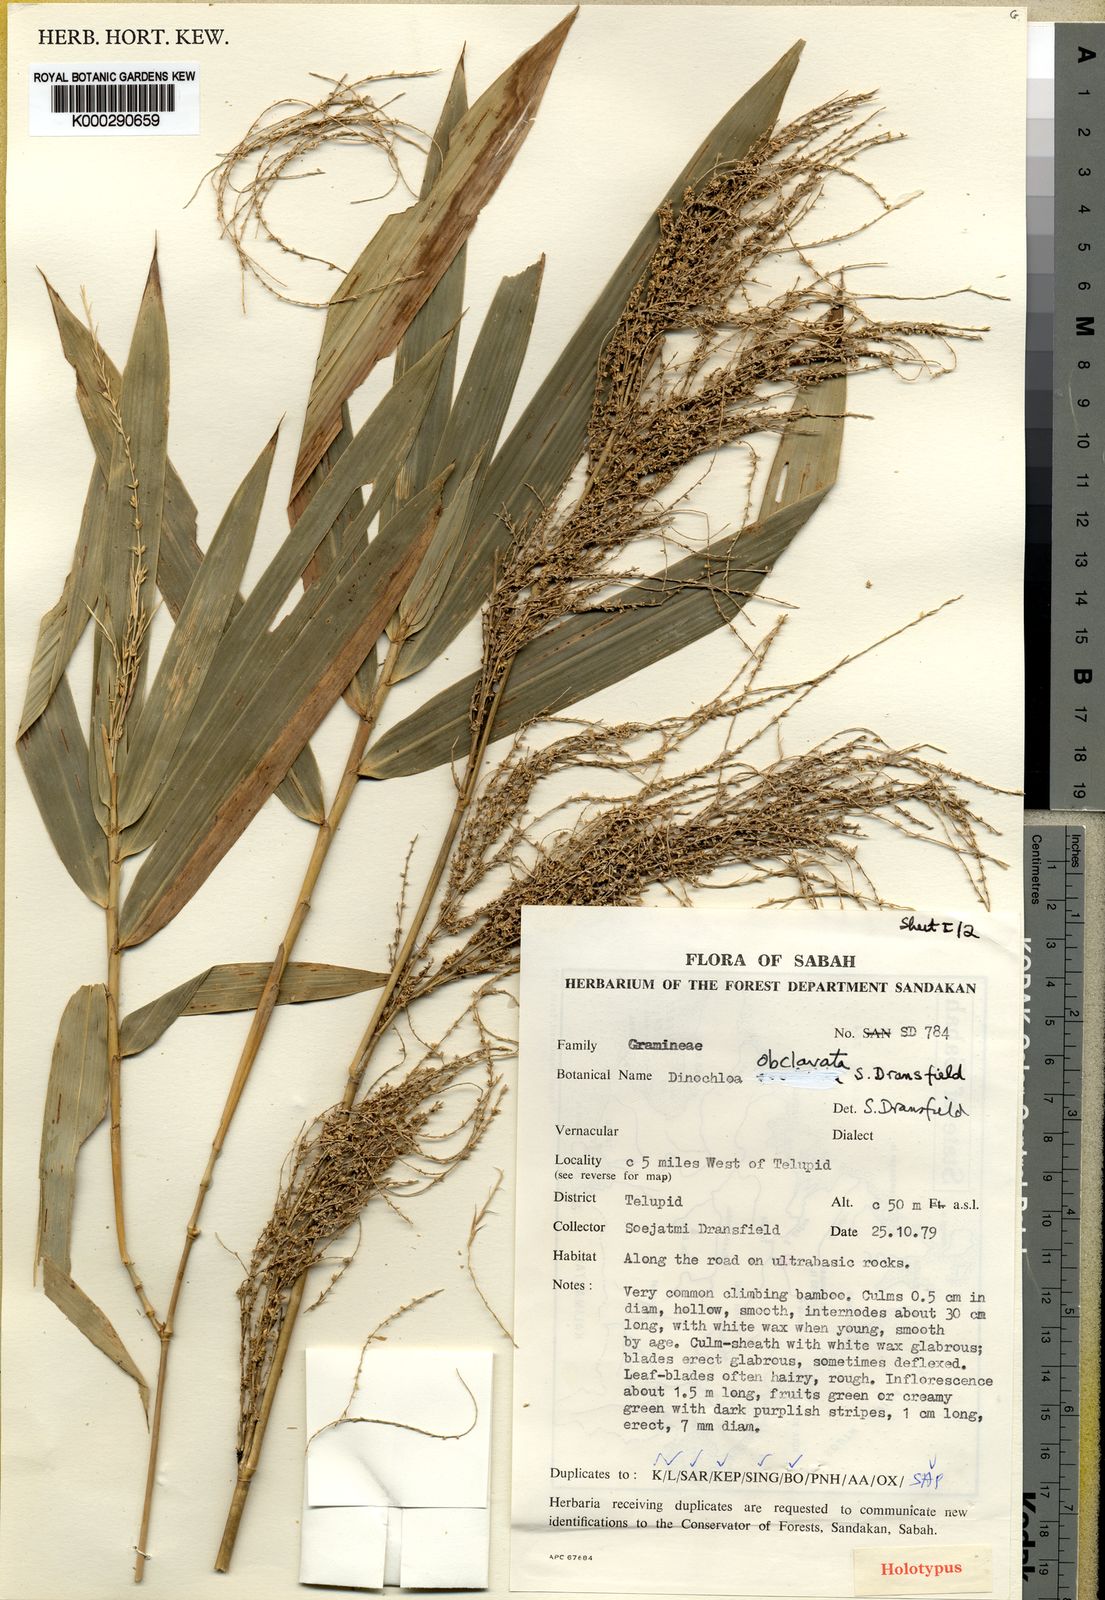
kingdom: Plantae
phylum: Tracheophyta
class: Liliopsida
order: Poales
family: Poaceae
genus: Dinochloa
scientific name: Dinochloa obclavata
